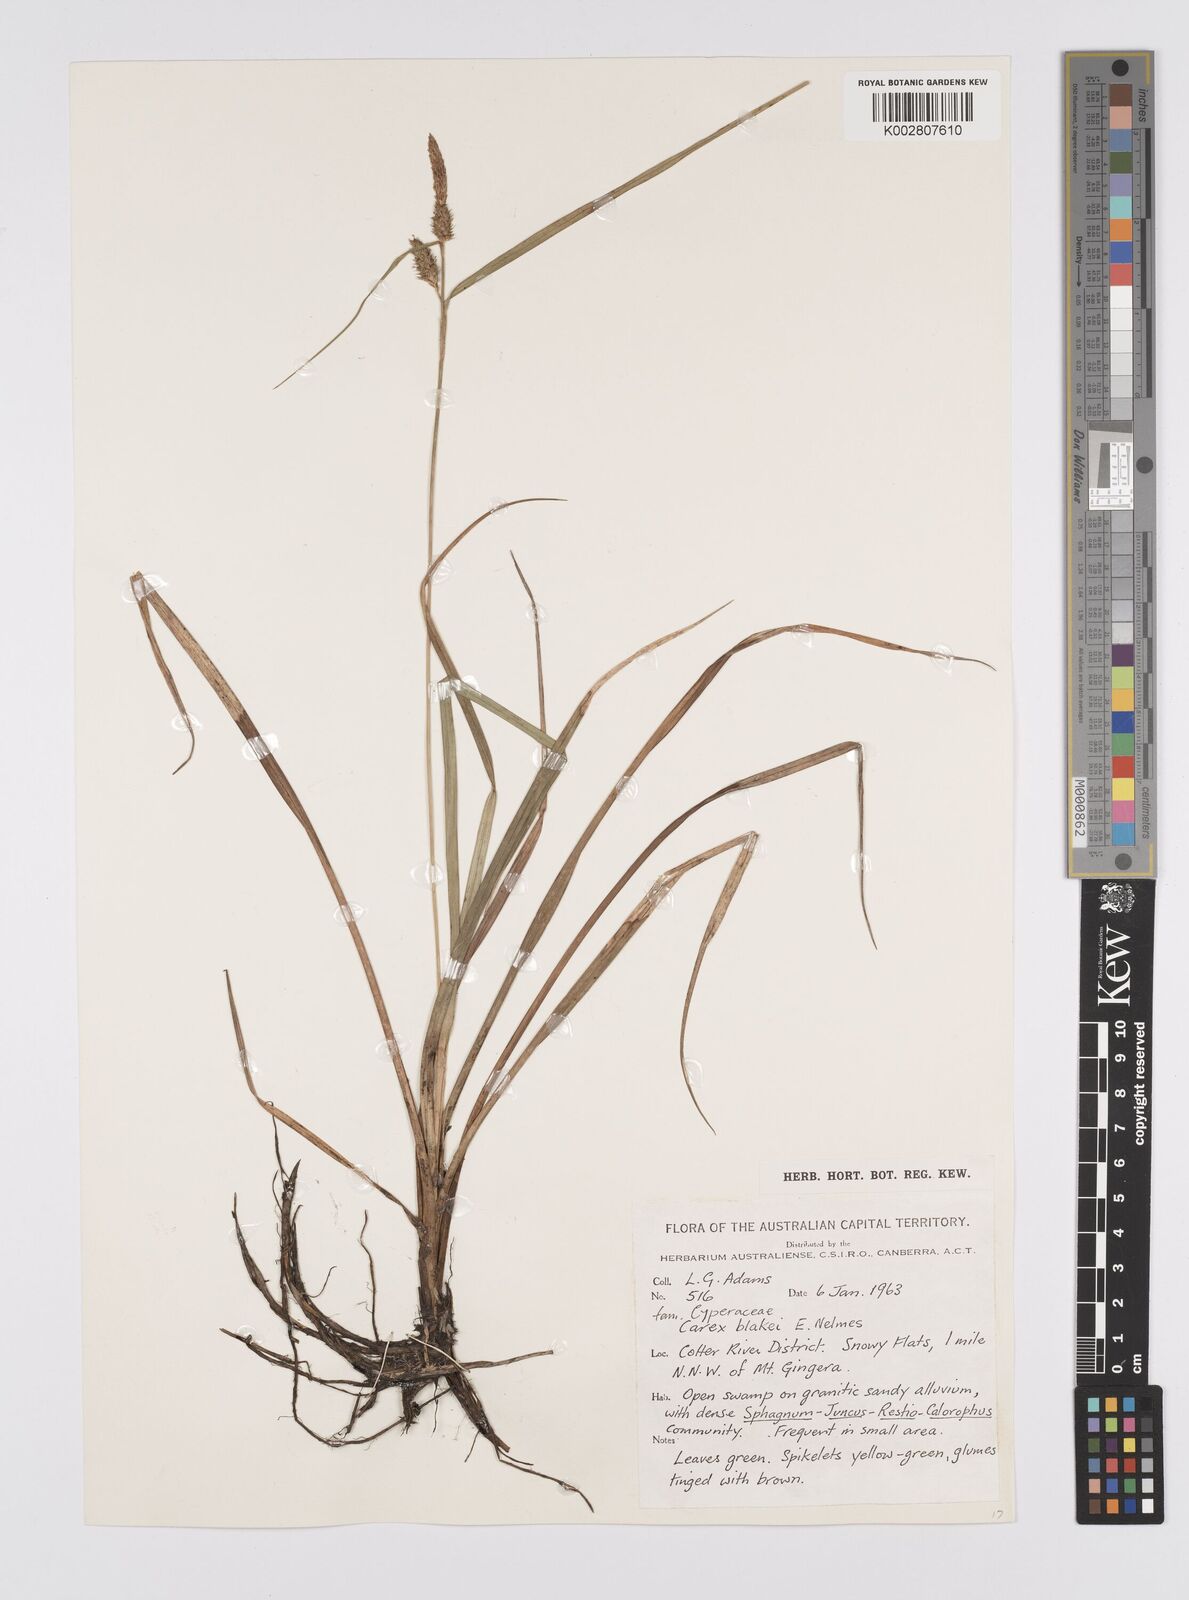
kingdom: Plantae
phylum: Tracheophyta
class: Liliopsida
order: Poales
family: Cyperaceae
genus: Carex
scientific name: Carex blakei
